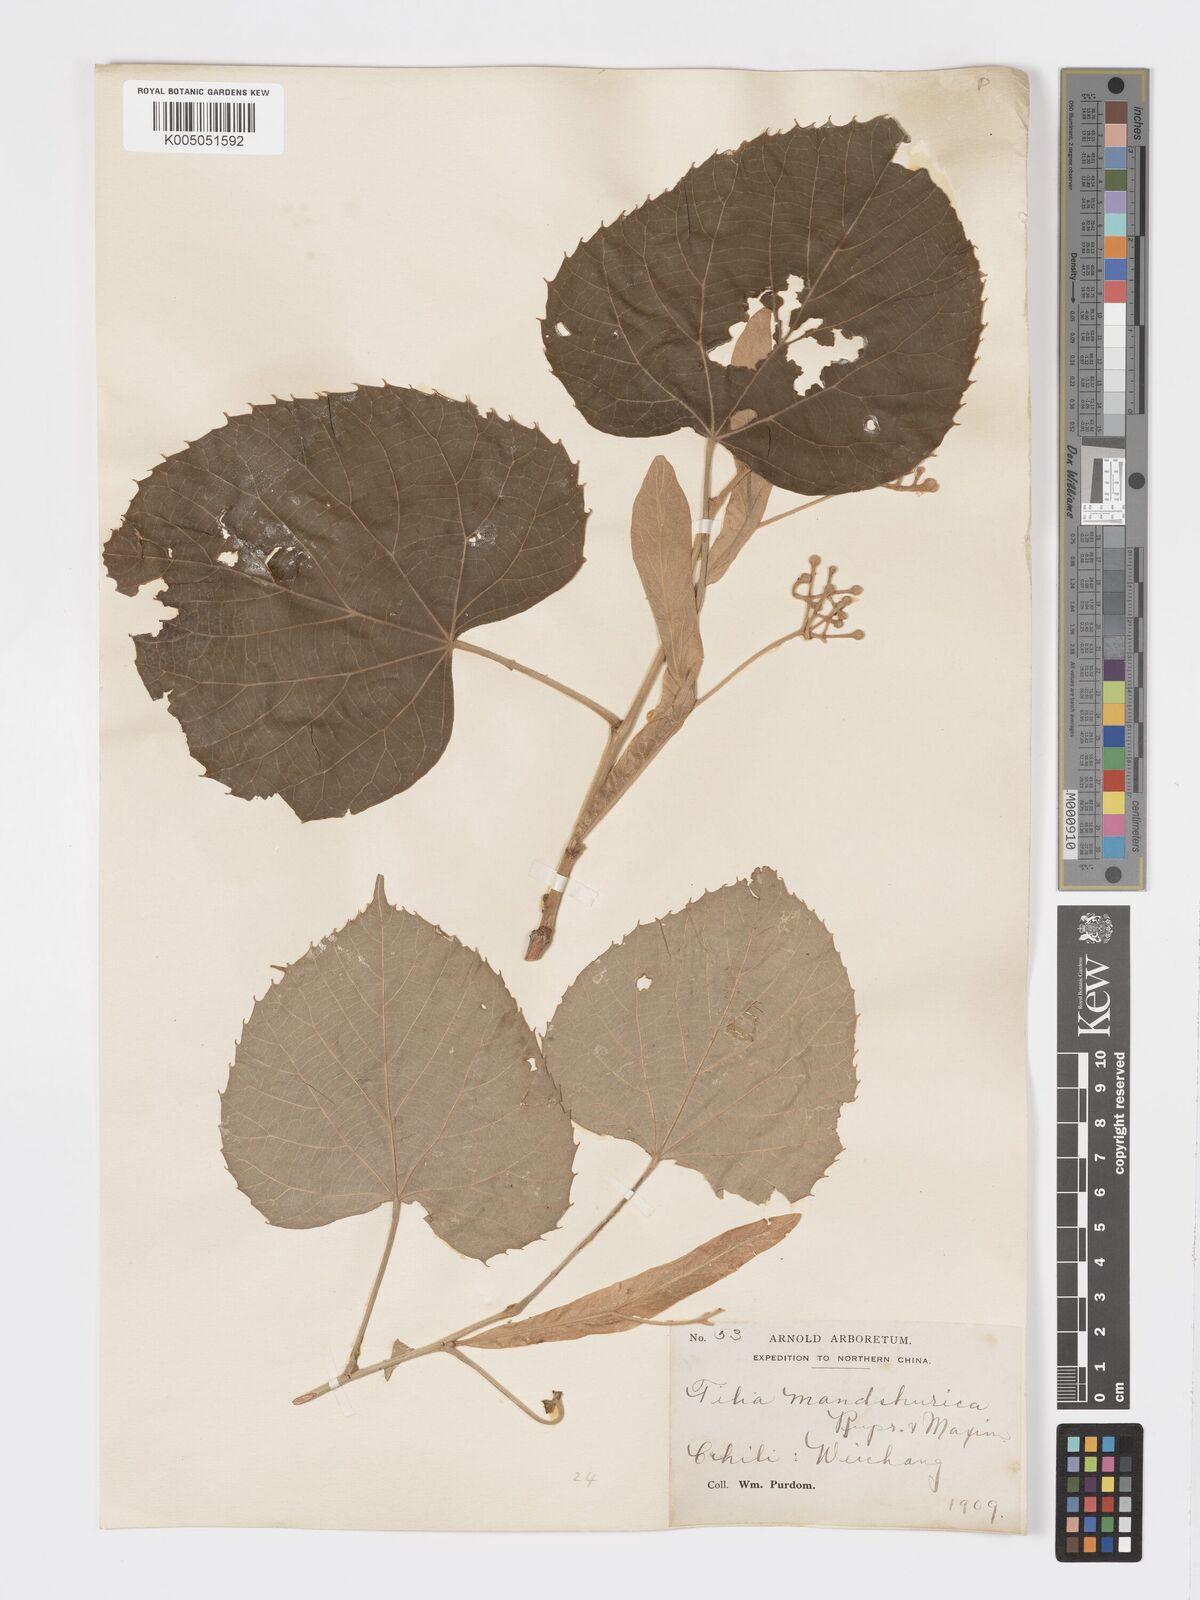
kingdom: Plantae
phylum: Tracheophyta
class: Magnoliopsida
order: Malvales
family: Malvaceae
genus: Tilia
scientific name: Tilia mandshurica
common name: Manchurian linden
